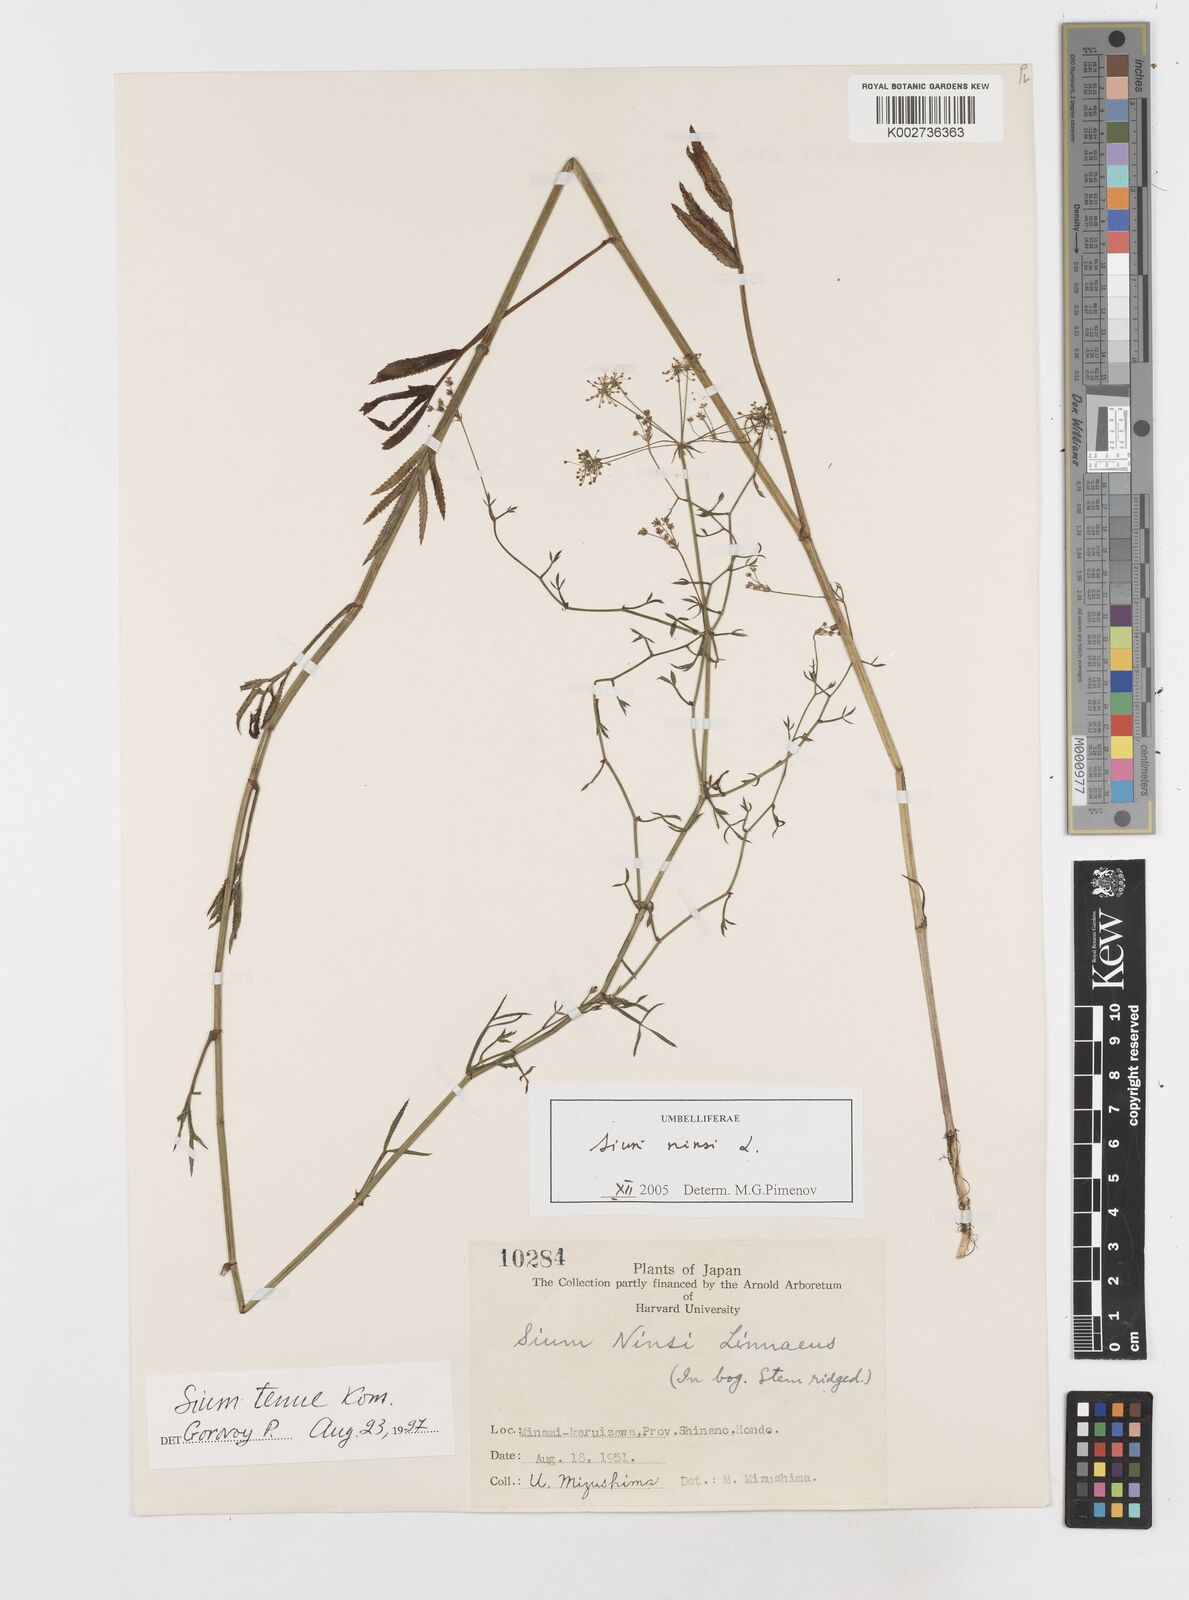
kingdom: Plantae
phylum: Tracheophyta
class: Magnoliopsida
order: Apiales
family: Apiaceae
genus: Sium
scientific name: Sium ninsi
